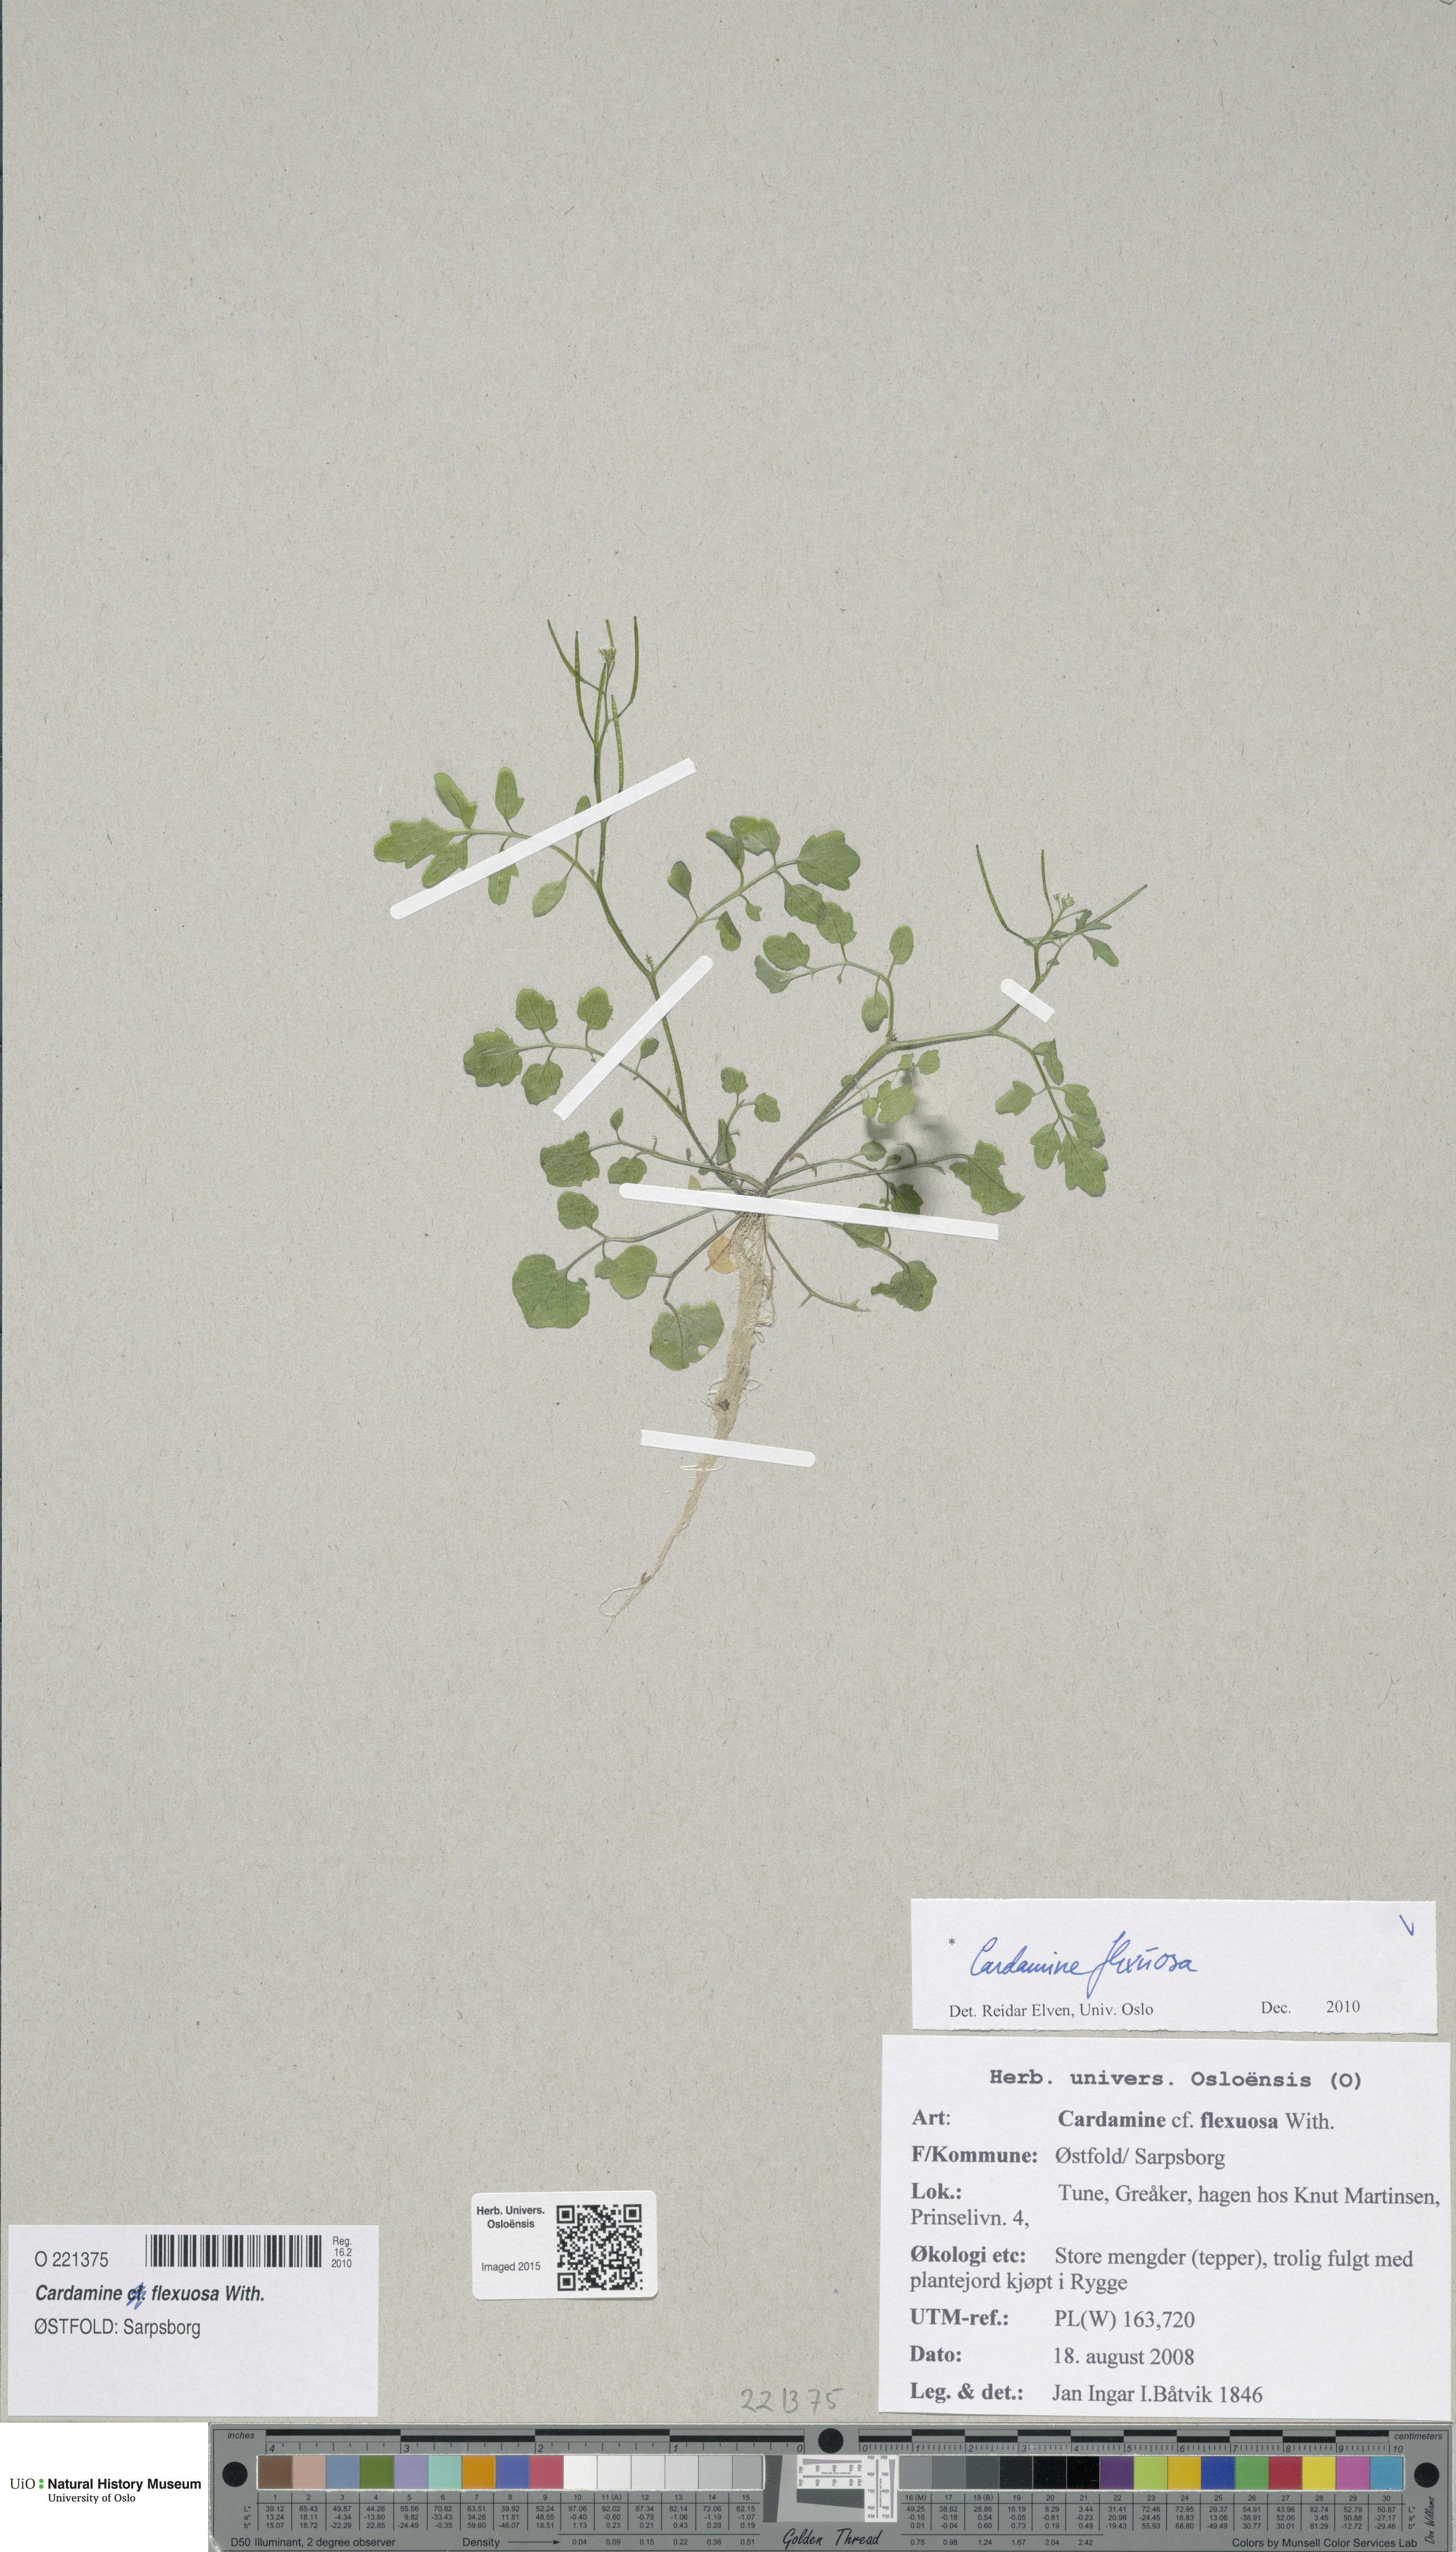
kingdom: Plantae
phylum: Tracheophyta
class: Magnoliopsida
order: Brassicales
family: Brassicaceae
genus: Cardamine
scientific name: Cardamine flexuosa
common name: Woodland bittercress
